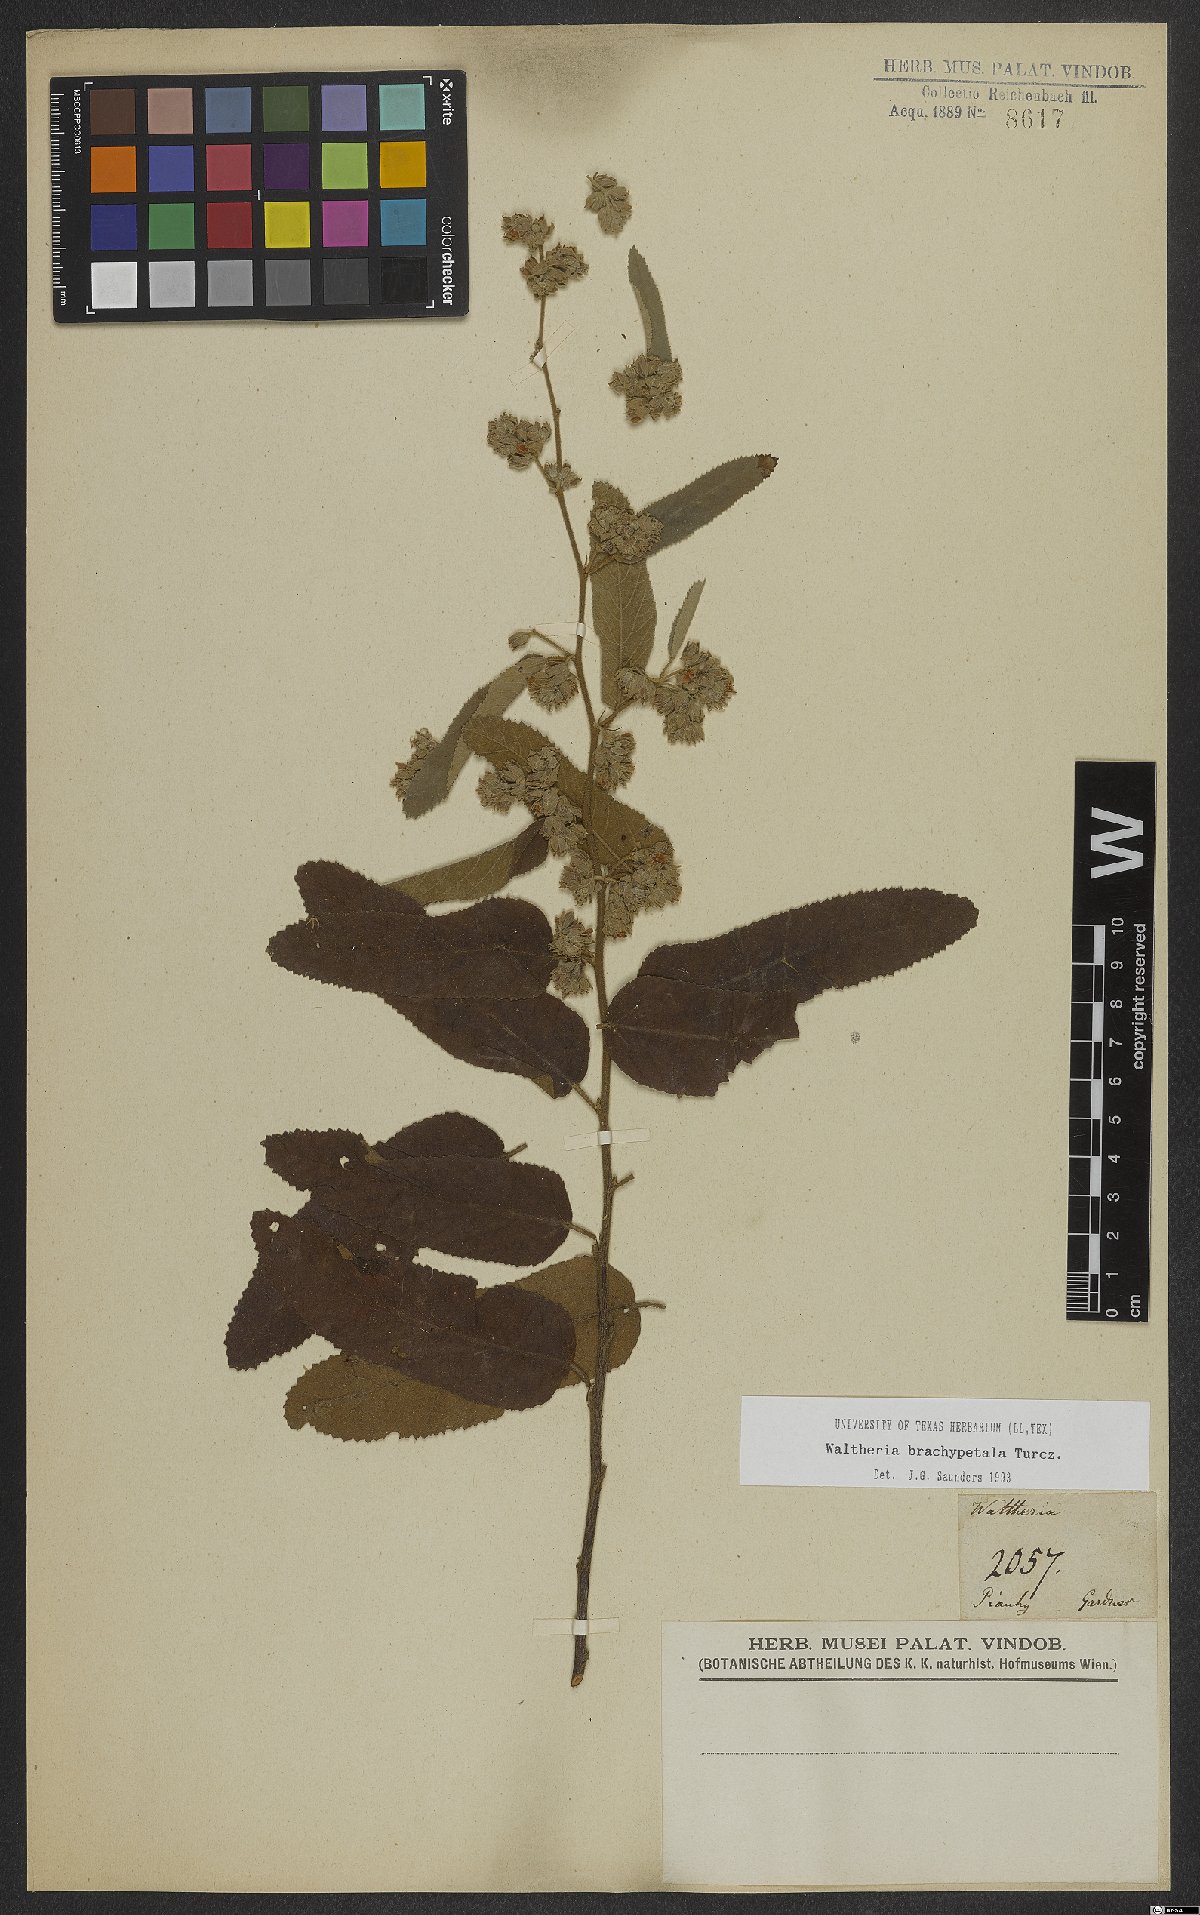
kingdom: Plantae
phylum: Tracheophyta
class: Magnoliopsida
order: Malvales
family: Malvaceae
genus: Waltheria
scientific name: Waltheria brachypetala
